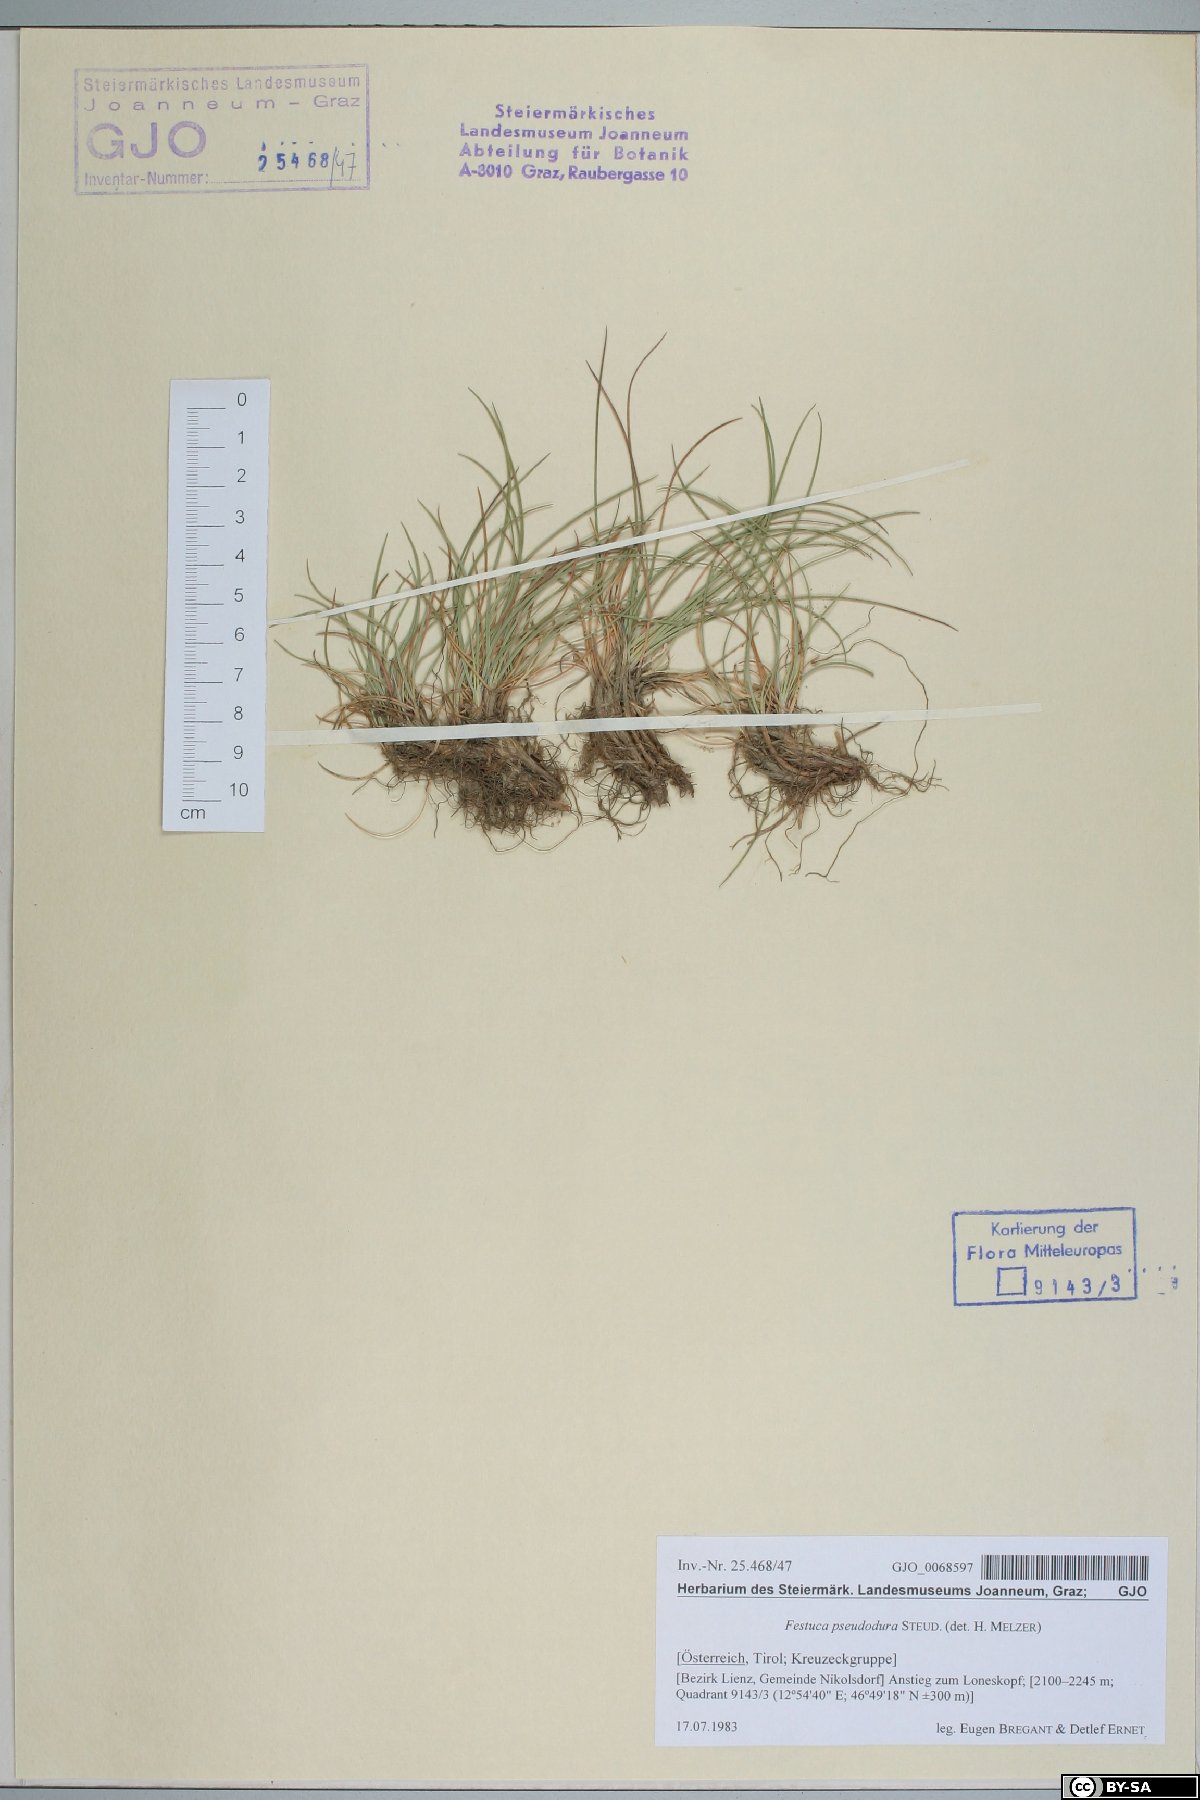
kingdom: Plantae
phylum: Tracheophyta
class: Liliopsida
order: Poales
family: Poaceae
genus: Festuca
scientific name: Festuca pseudodura
